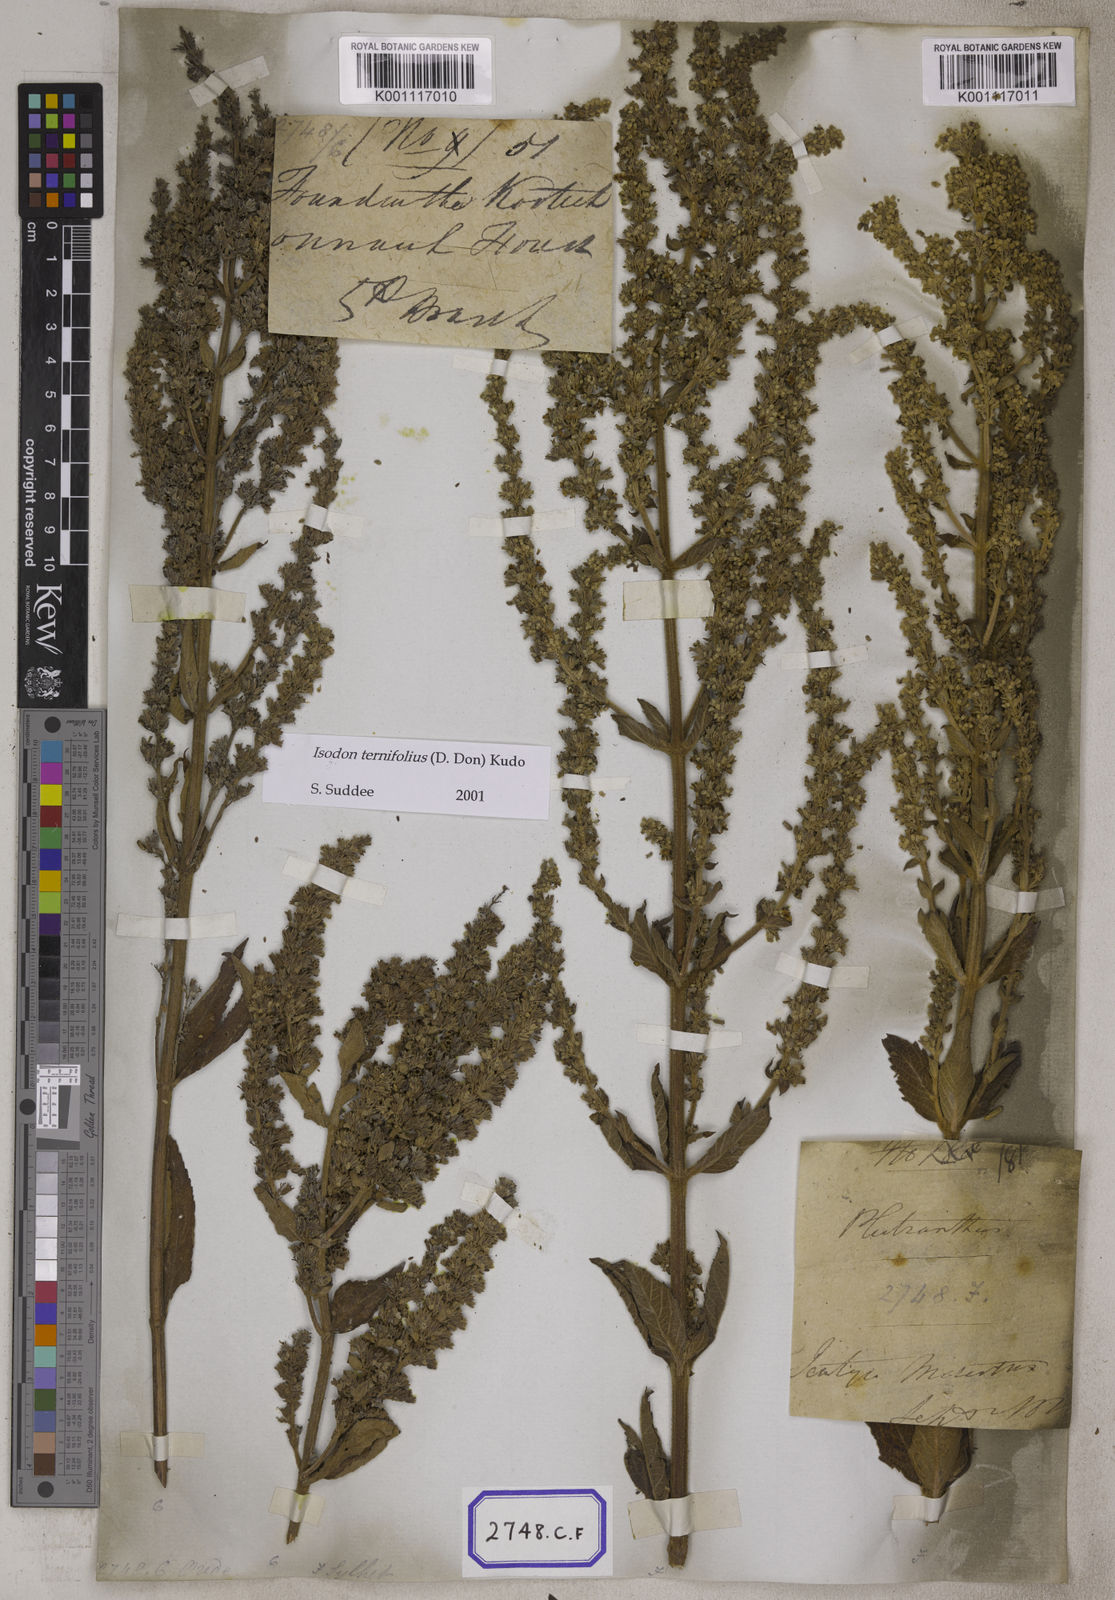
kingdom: Plantae
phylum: Tracheophyta
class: Magnoliopsida
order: Lamiales
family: Lamiaceae
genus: Isodon
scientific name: Isodon ternifolius
